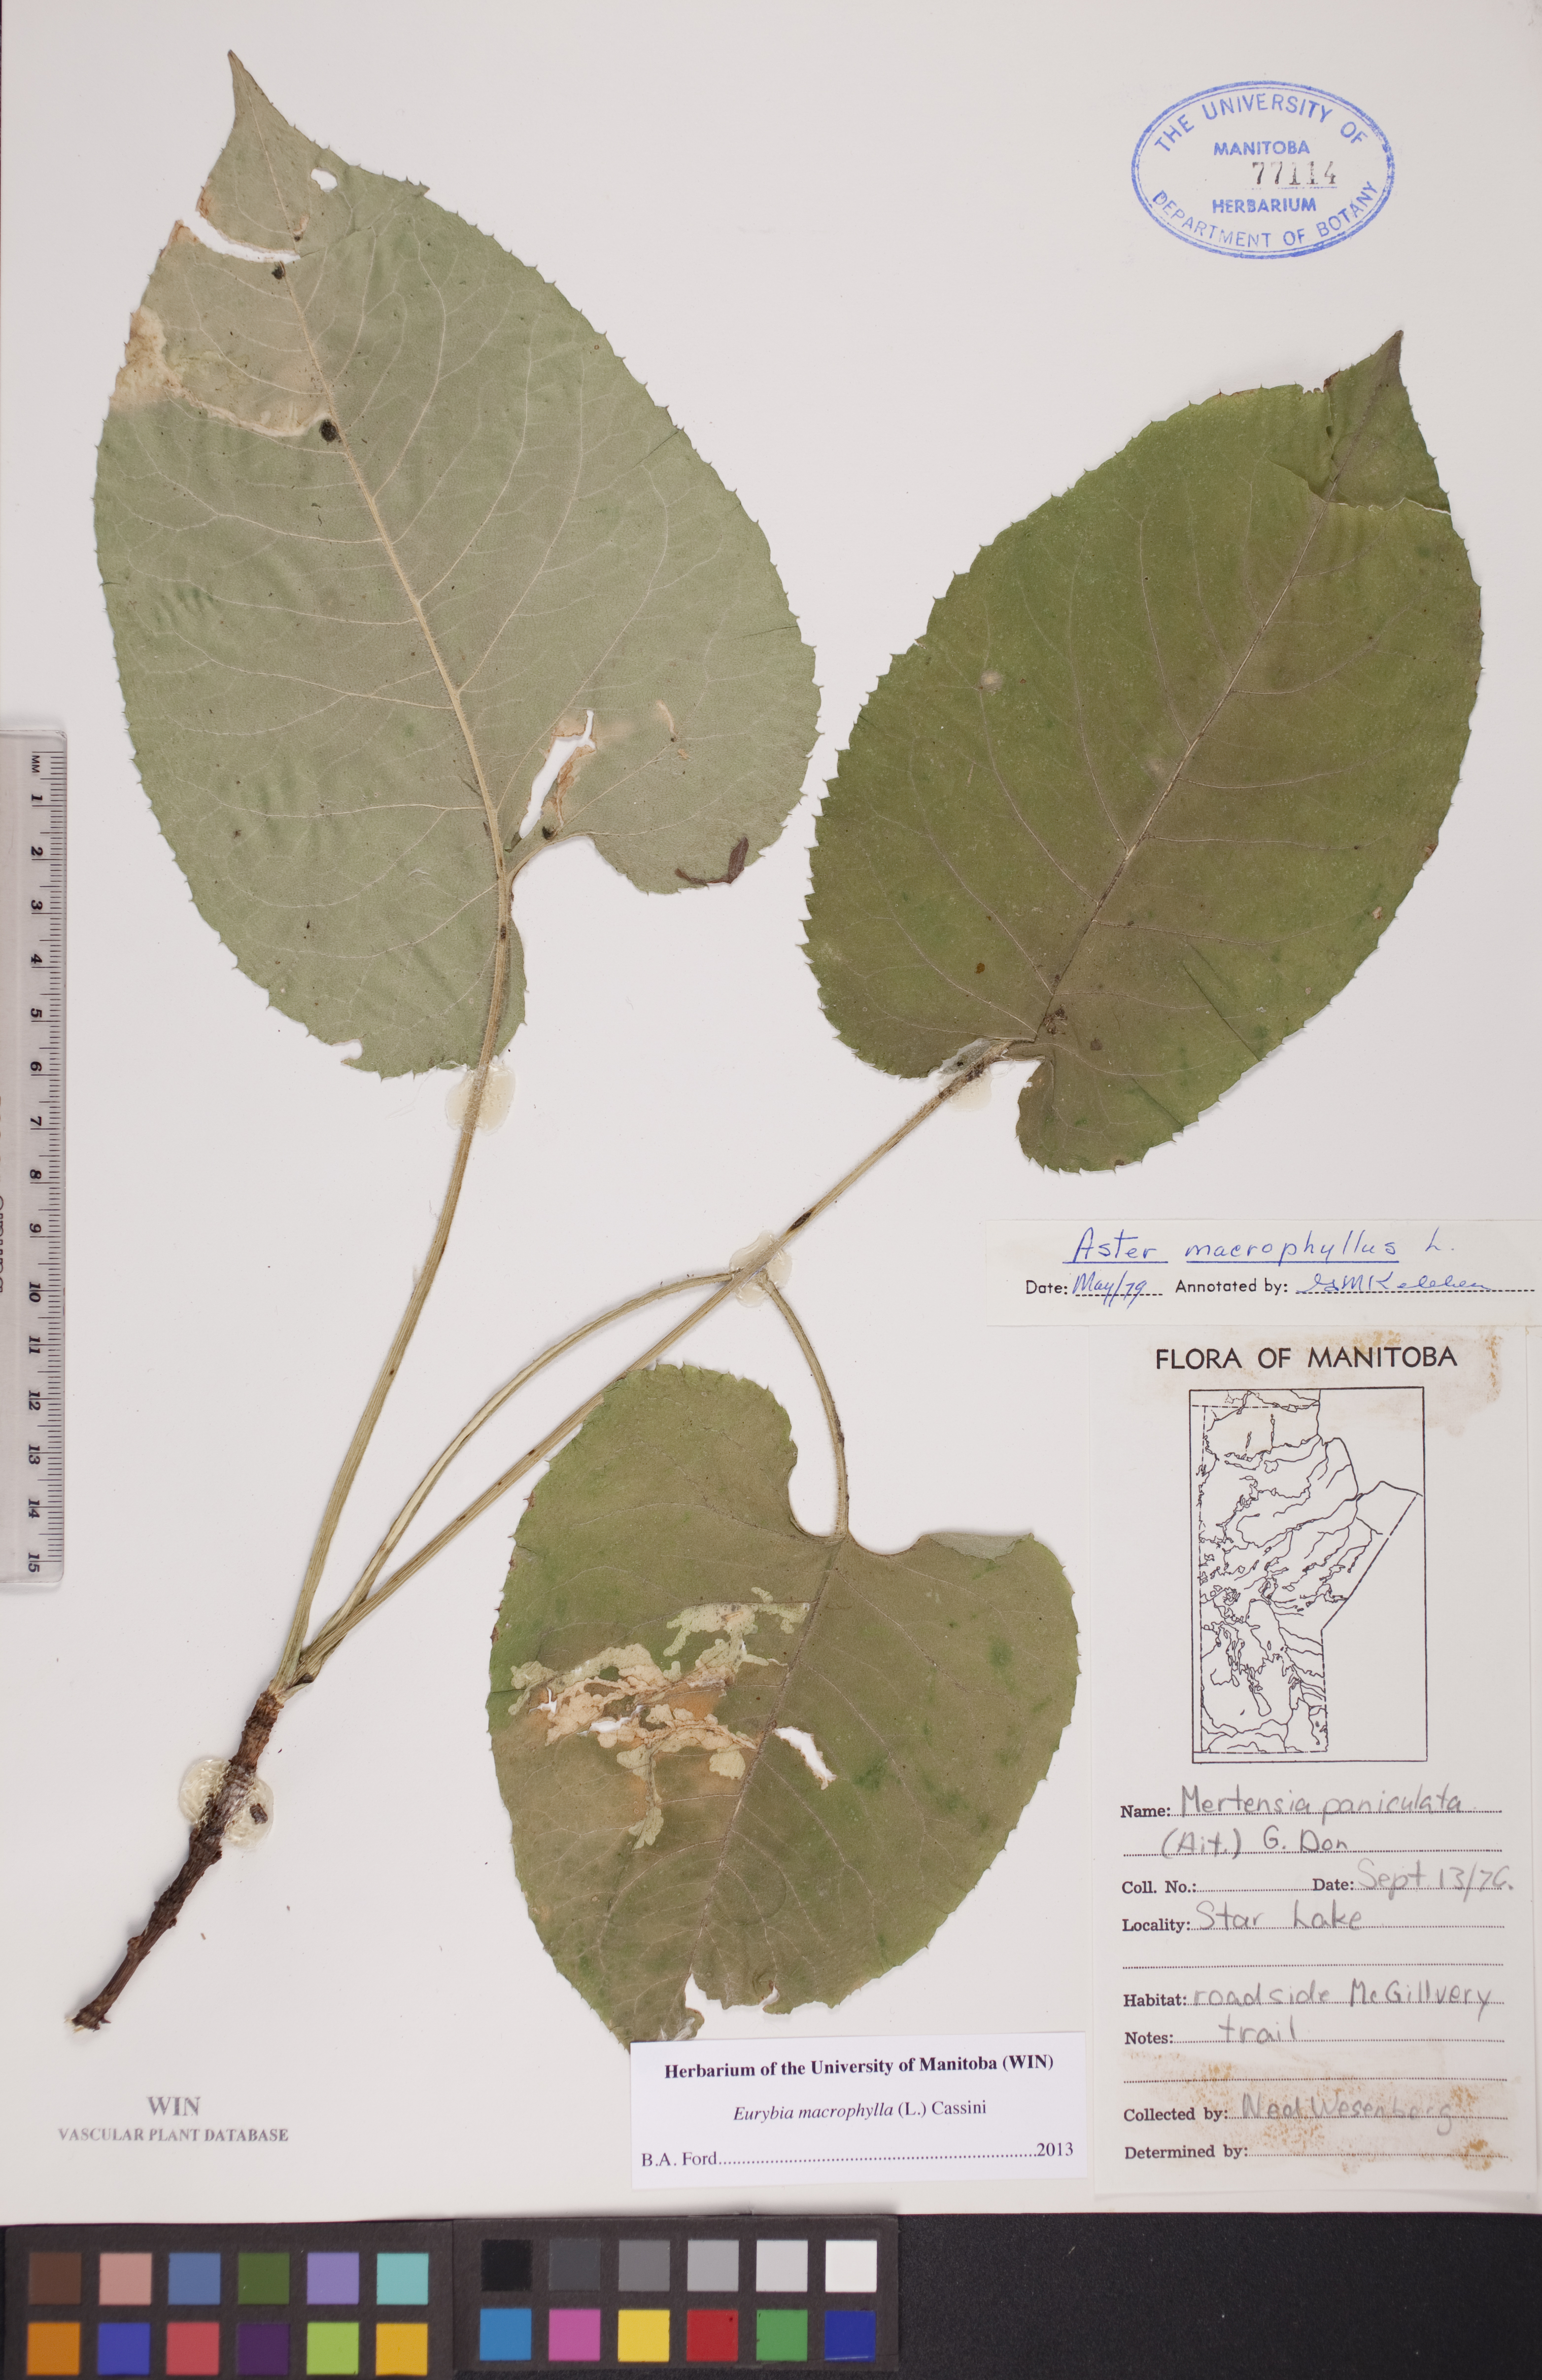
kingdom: Plantae
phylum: Tracheophyta
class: Magnoliopsida
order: Asterales
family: Asteraceae
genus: Eurybia
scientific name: Eurybia macrophylla
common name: Big-leaved aster
